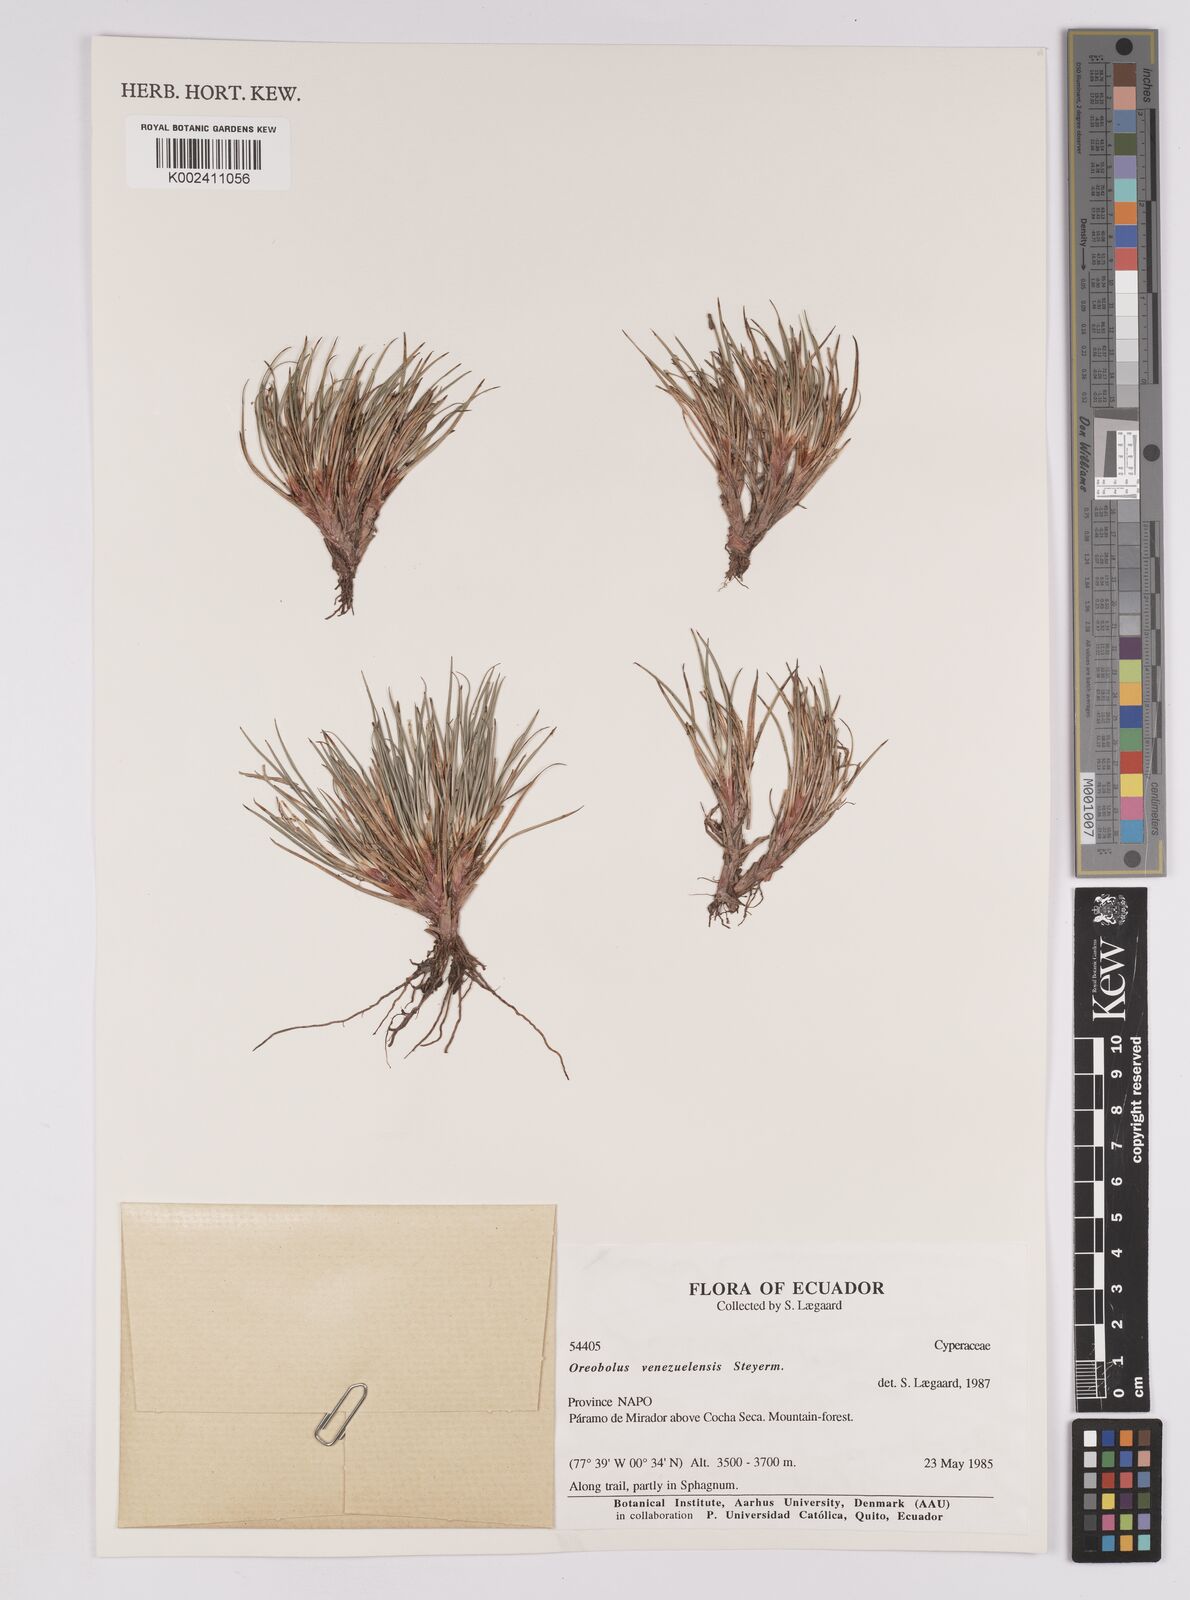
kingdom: Plantae
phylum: Tracheophyta
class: Liliopsida
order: Poales
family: Cyperaceae
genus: Oreobolus
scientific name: Oreobolus venezuelensis
